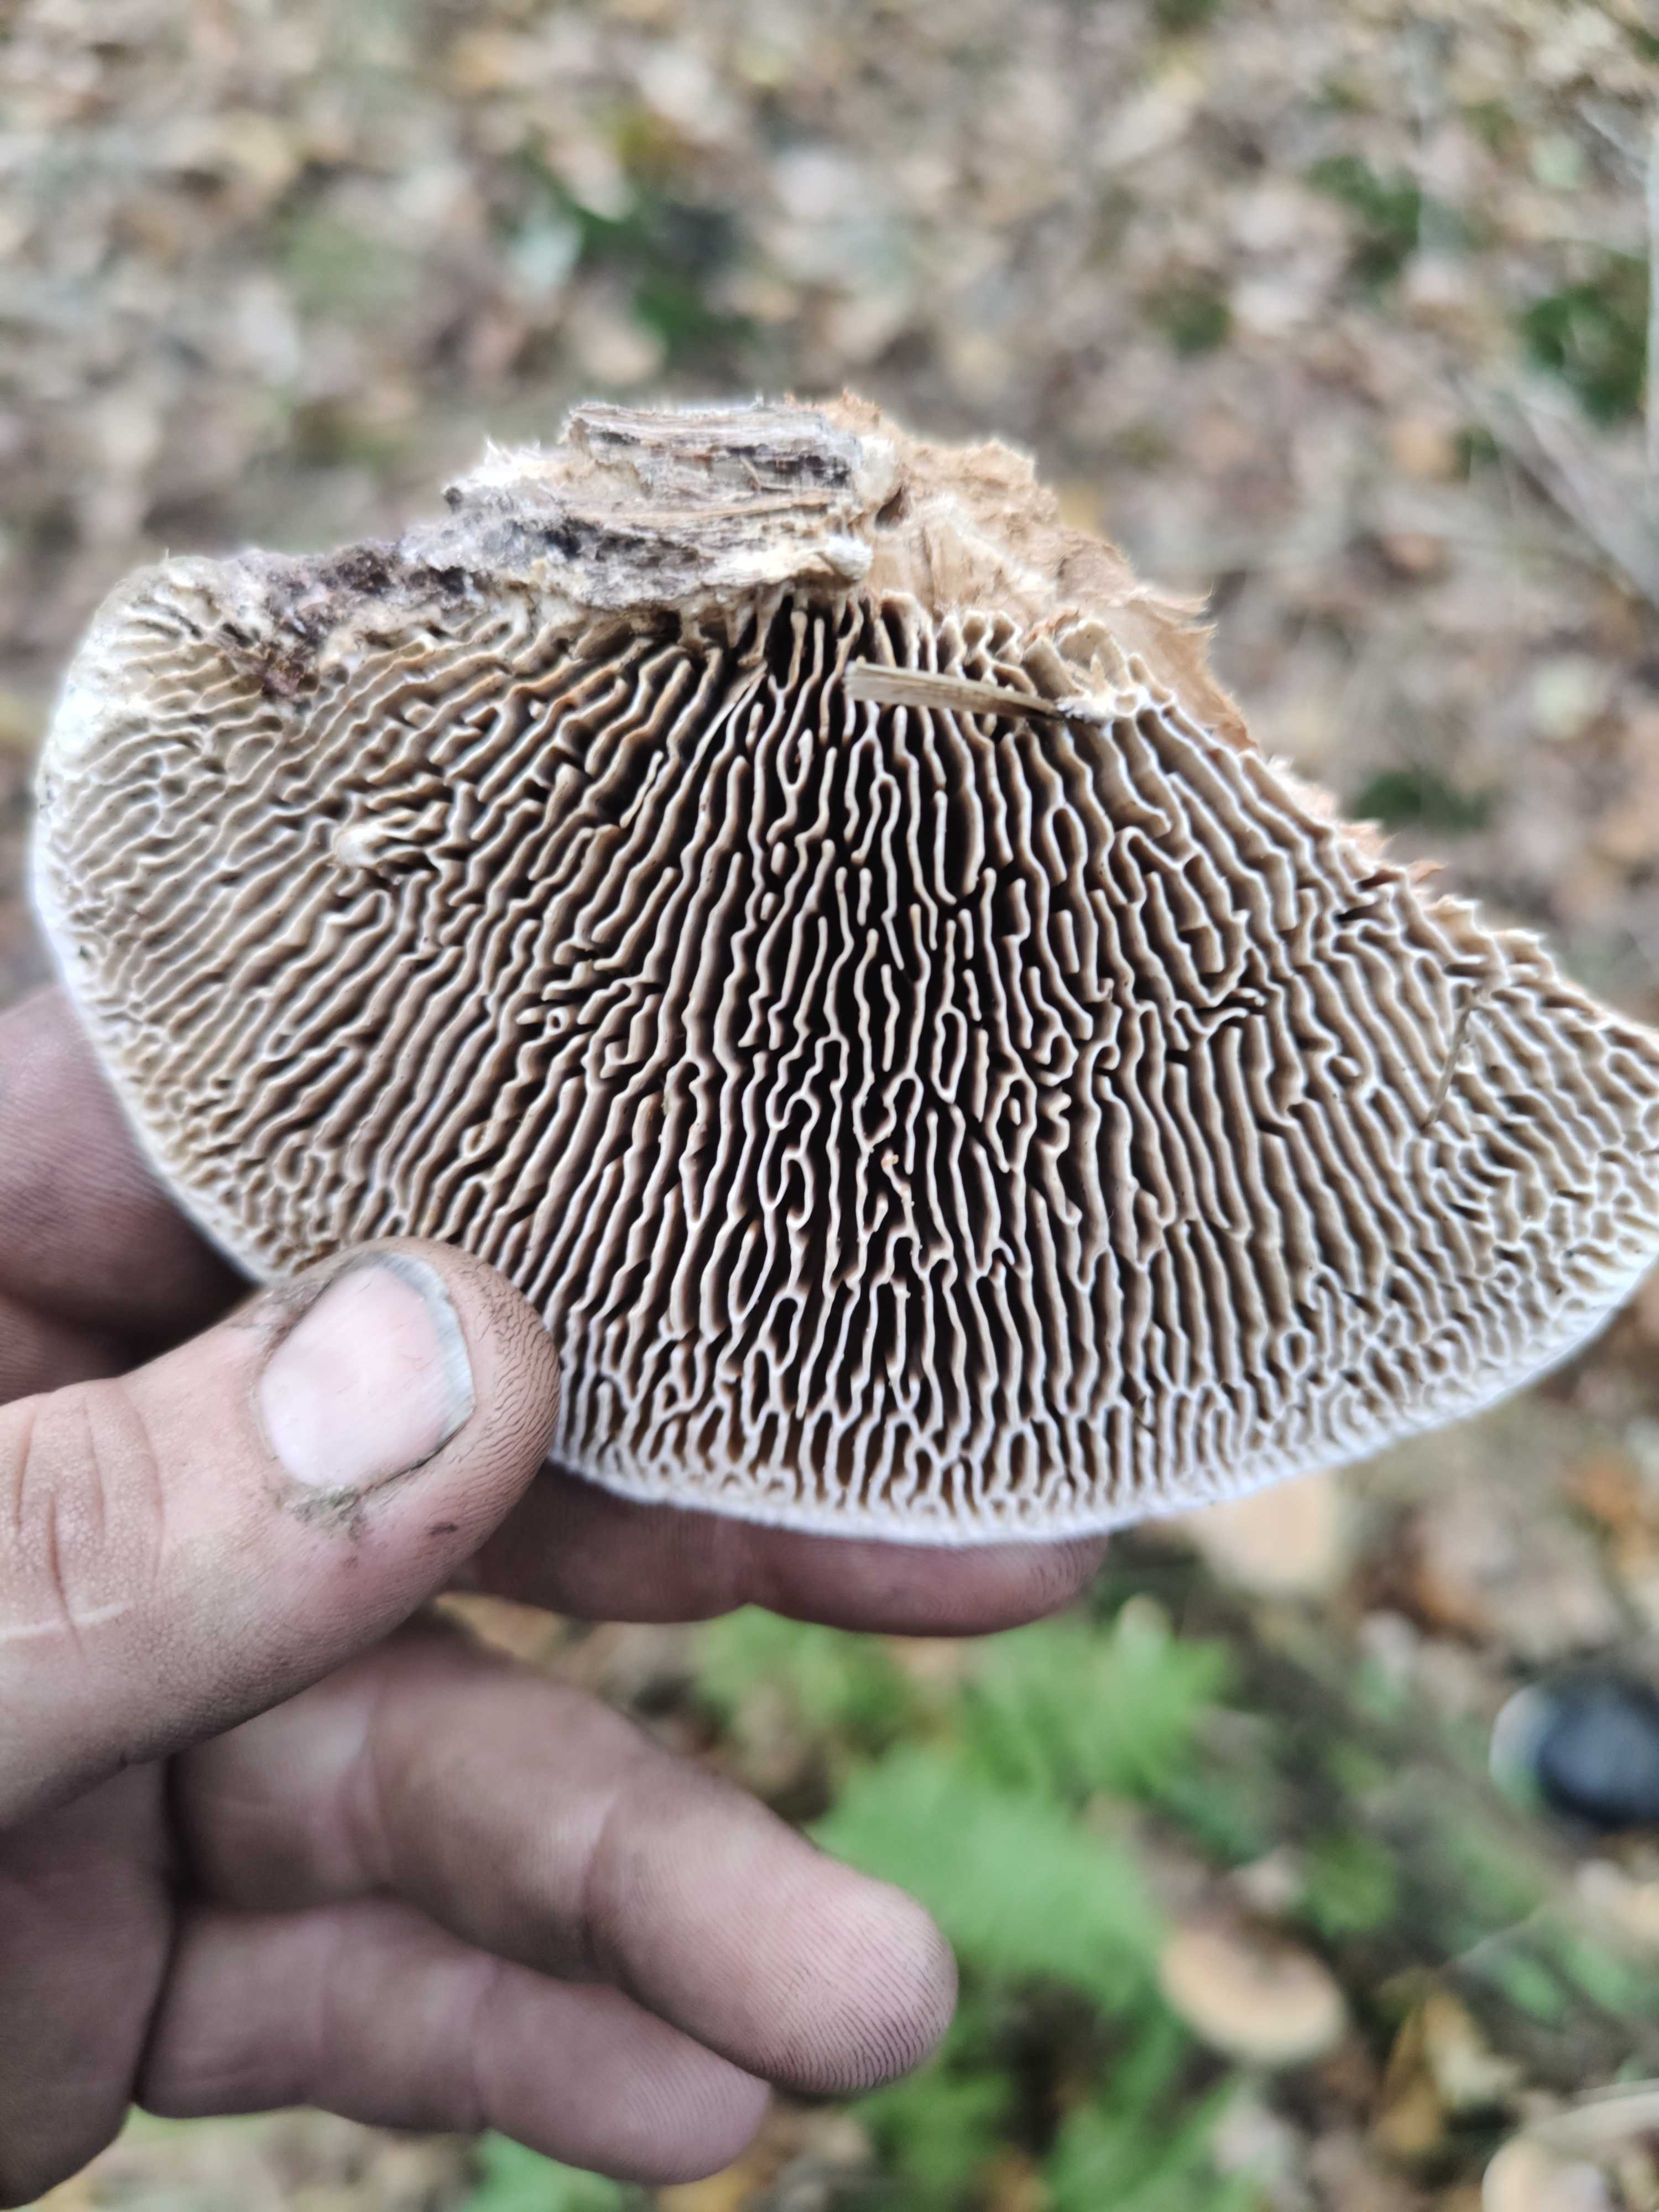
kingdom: Fungi
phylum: Basidiomycota
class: Agaricomycetes
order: Polyporales
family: Fomitopsidaceae
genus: Daedalea
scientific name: Daedalea quercina
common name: ege-labyrintsvamp
